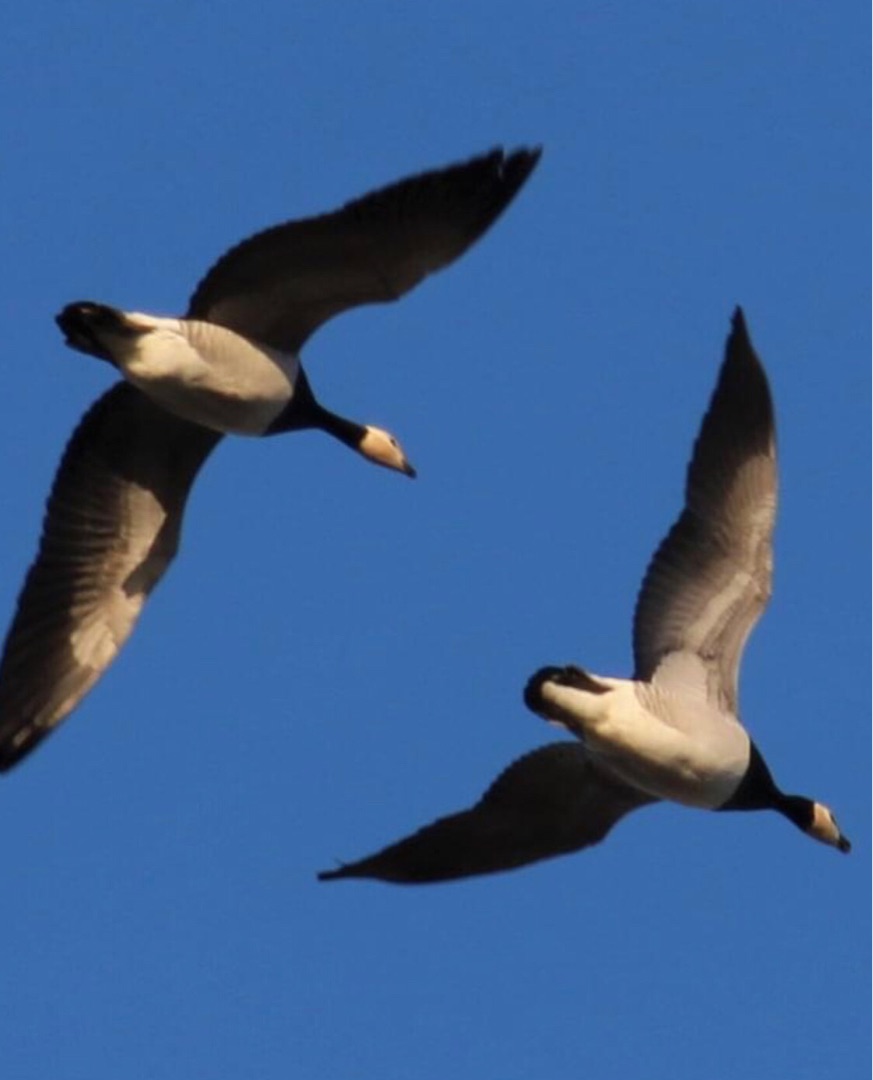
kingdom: Animalia
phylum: Chordata
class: Aves
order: Anseriformes
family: Anatidae
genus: Branta
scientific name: Branta leucopsis
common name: Bramgås
